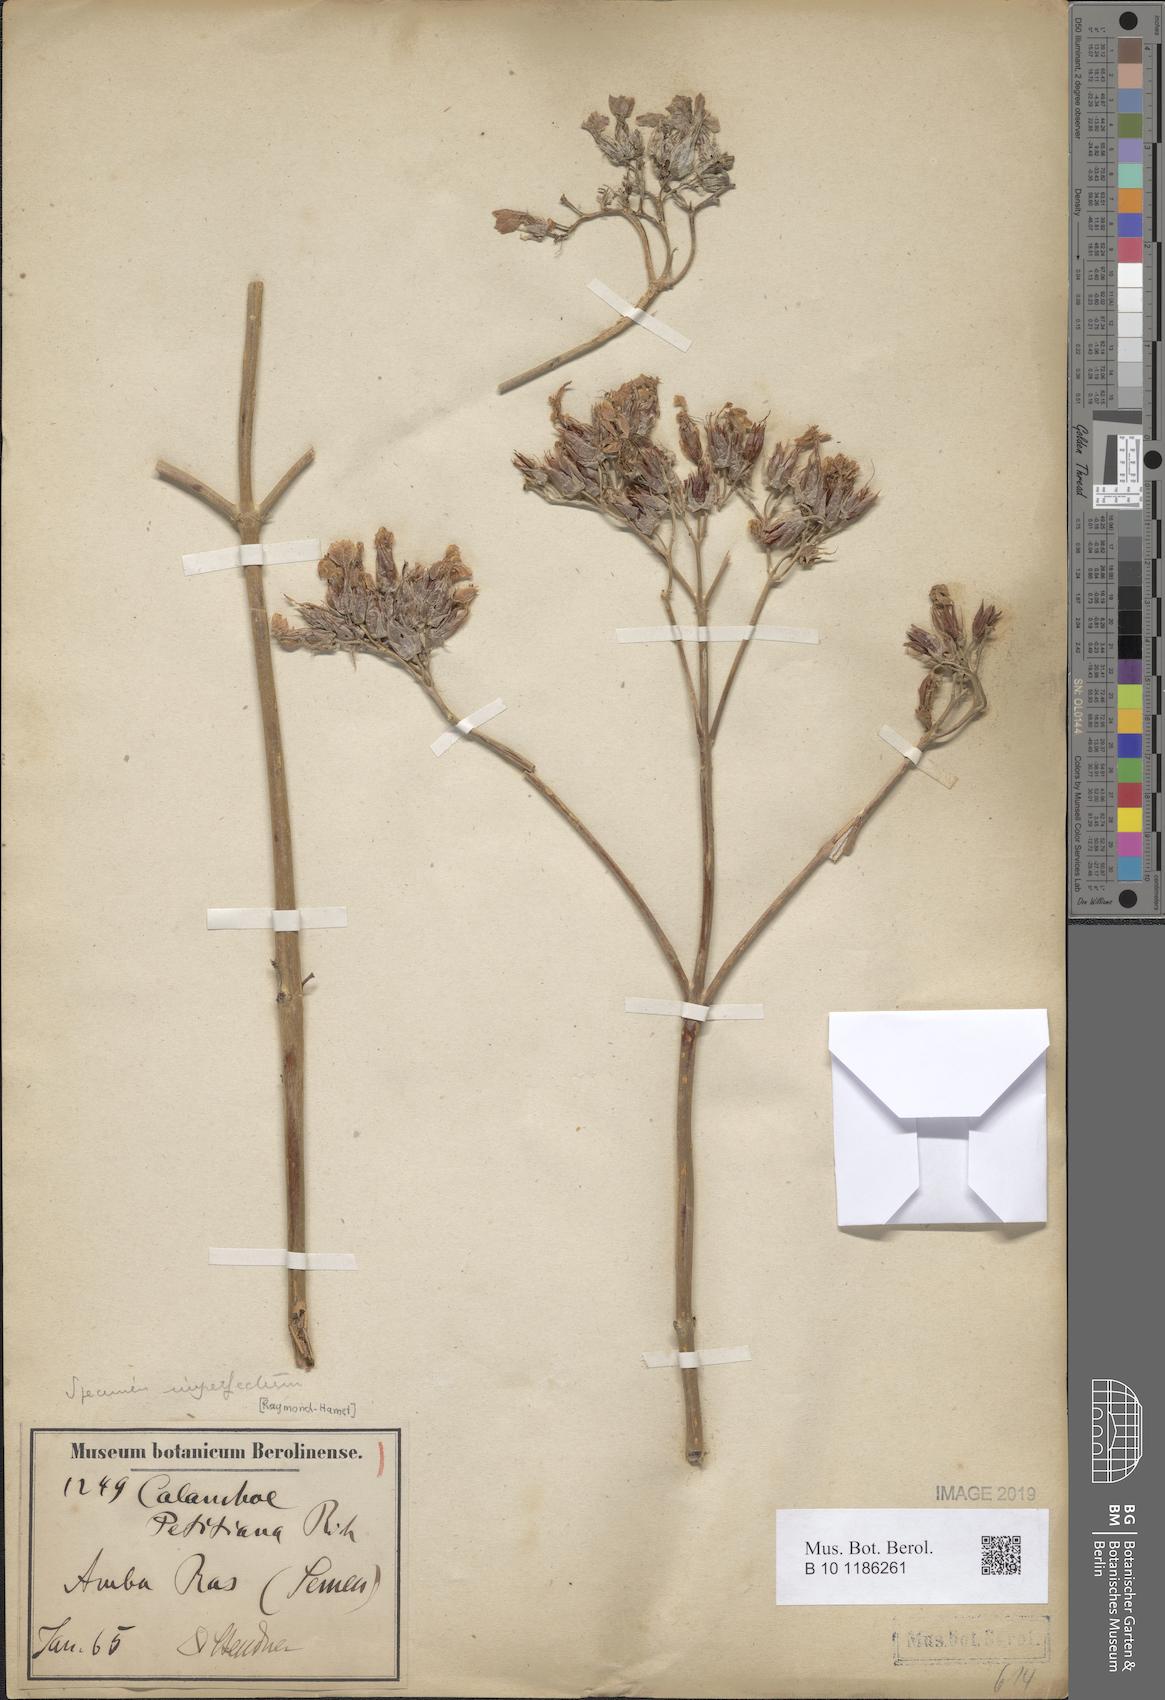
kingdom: Plantae
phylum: Tracheophyta
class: Magnoliopsida
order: Saxifragales
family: Crassulaceae
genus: Kalanchoe
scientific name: Kalanchoe petitiana
